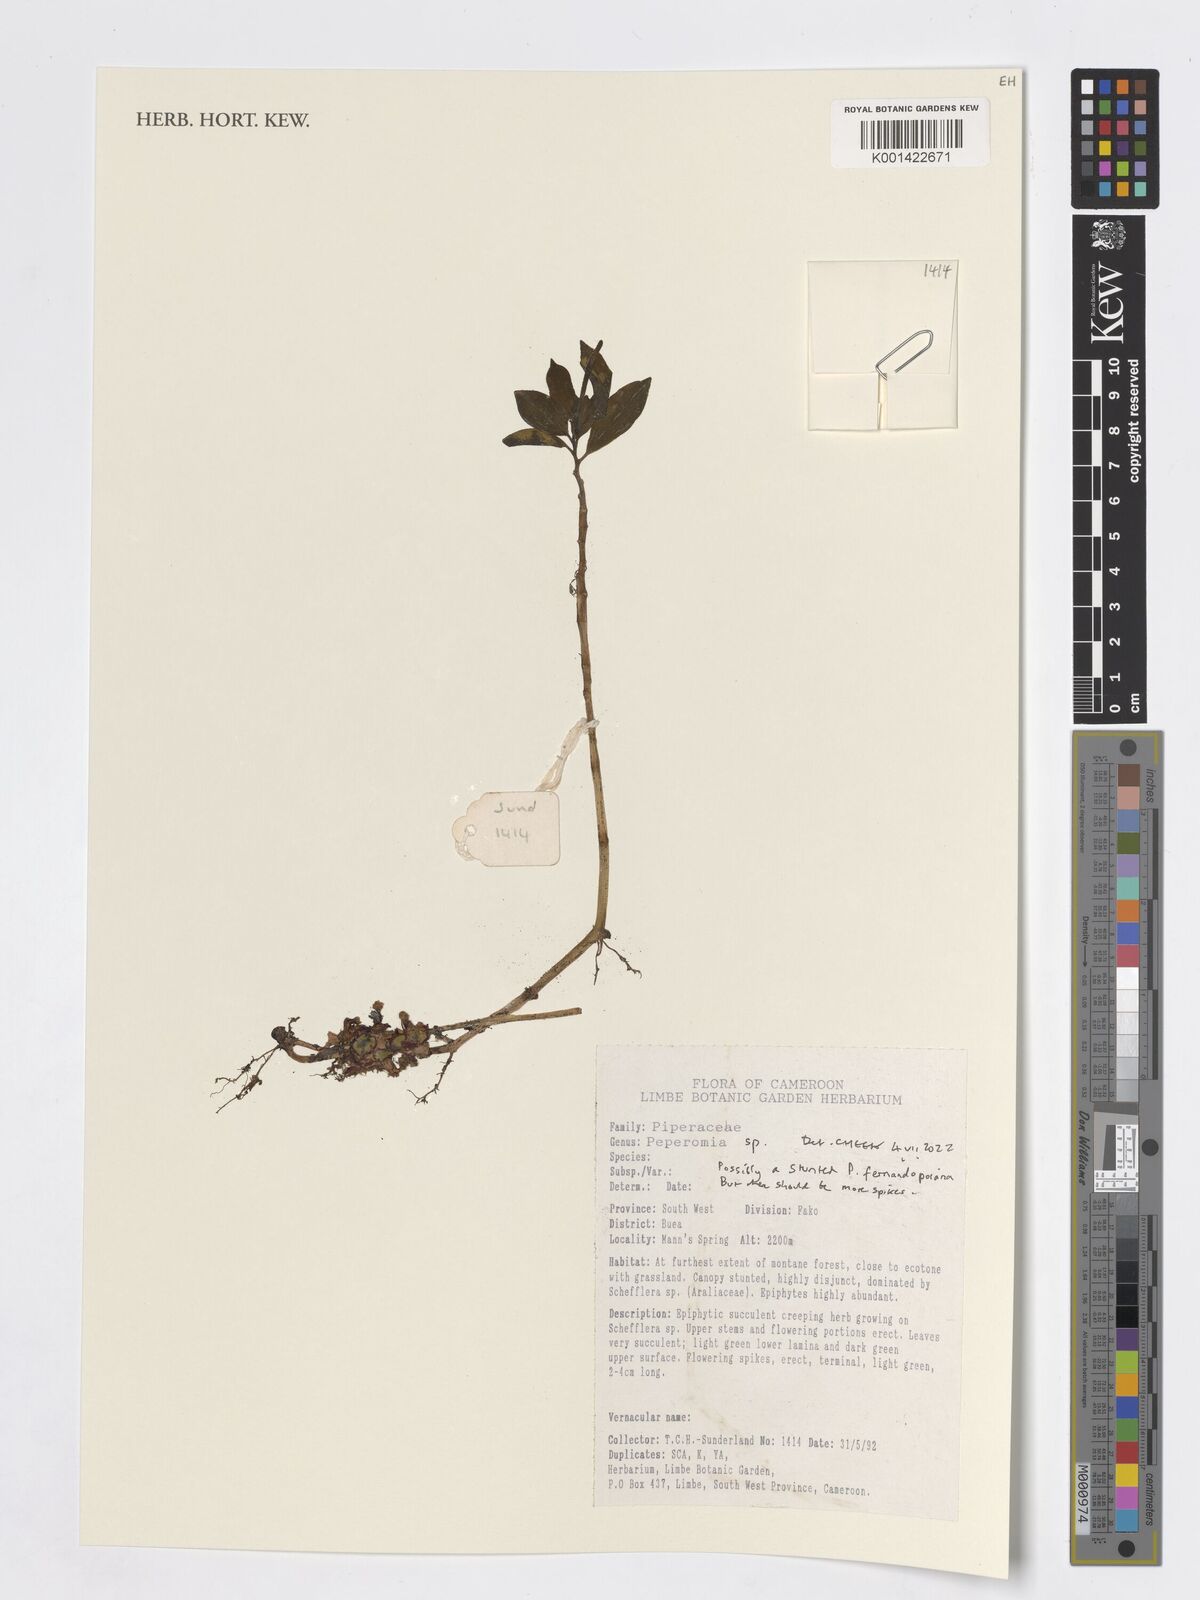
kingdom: Plantae
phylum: Tracheophyta
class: Magnoliopsida
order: Piperales
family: Piperaceae
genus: Peperomia
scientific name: Peperomia
